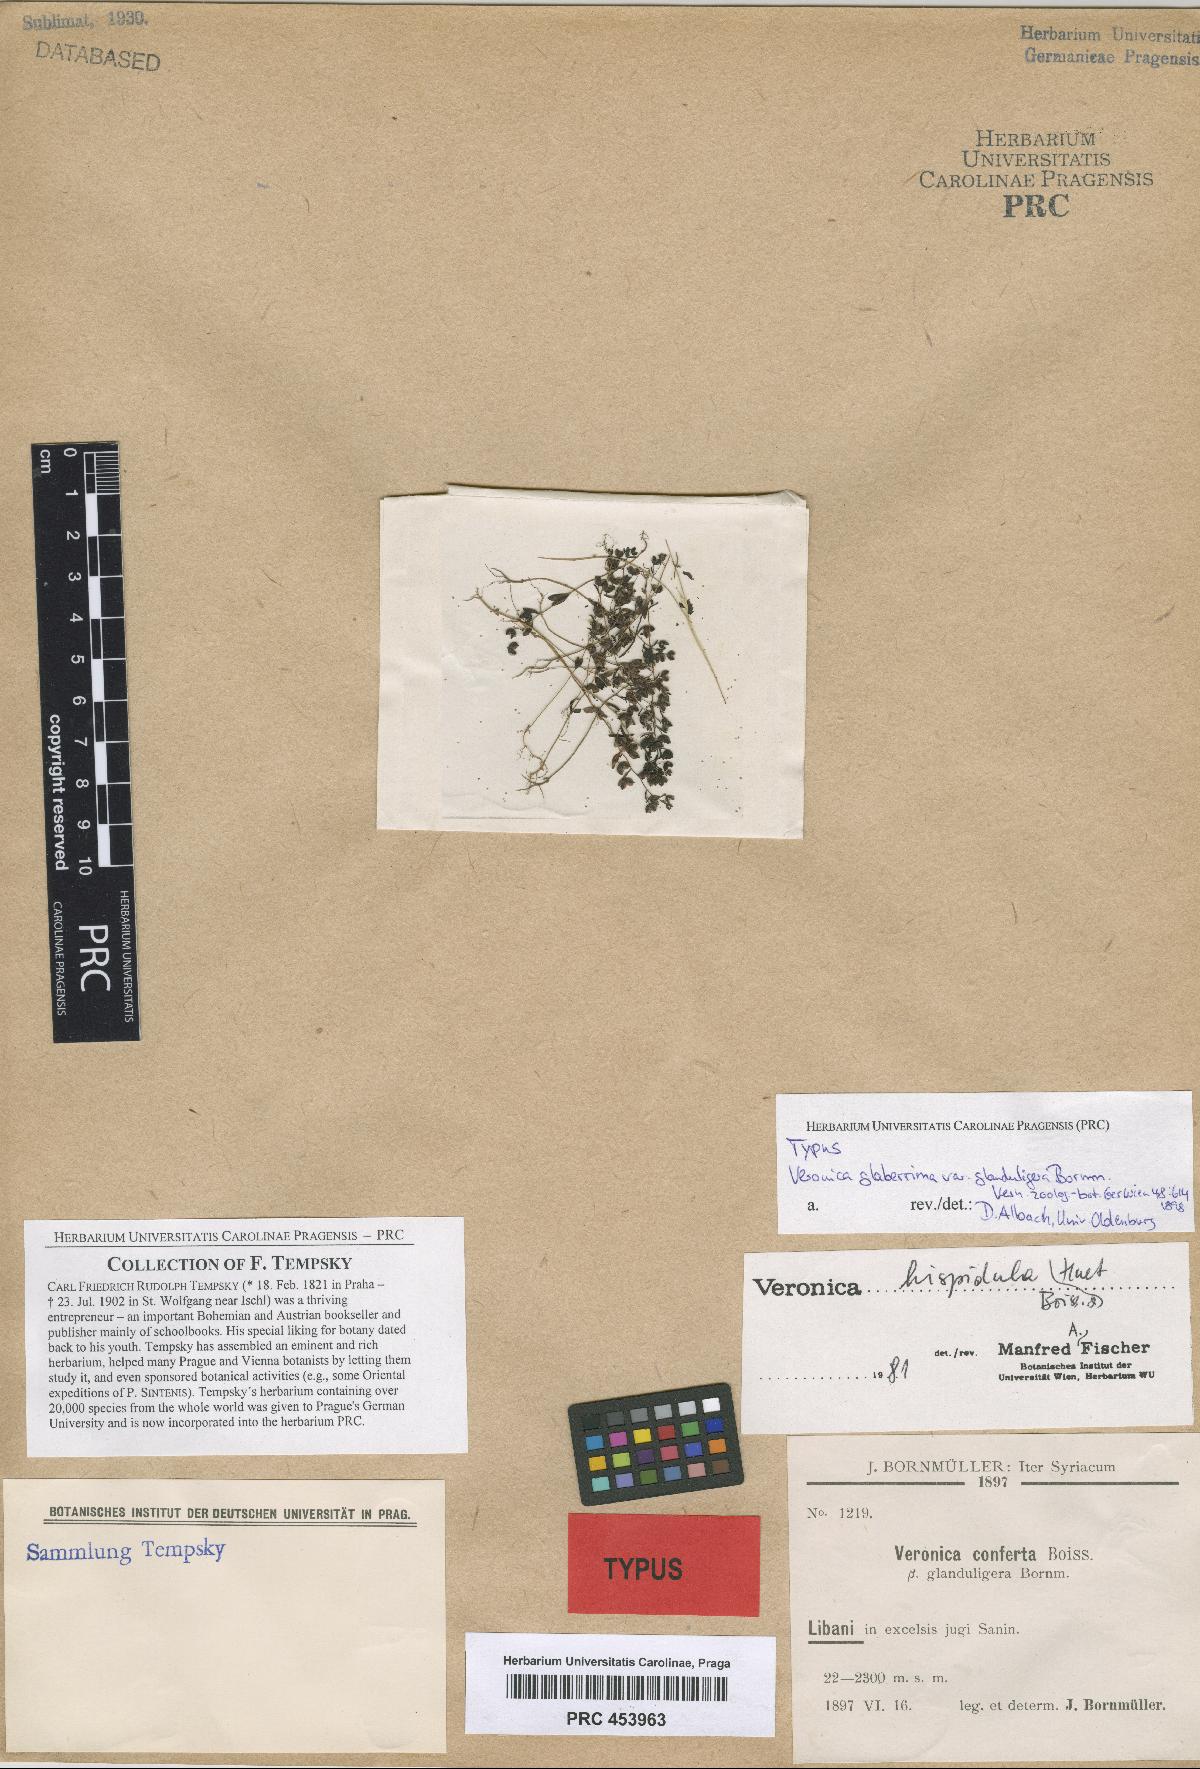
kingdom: Plantae
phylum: Tracheophyta
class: Magnoliopsida
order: Lamiales
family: Plantaginaceae
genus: Veronica
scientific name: Veronica pusilla
